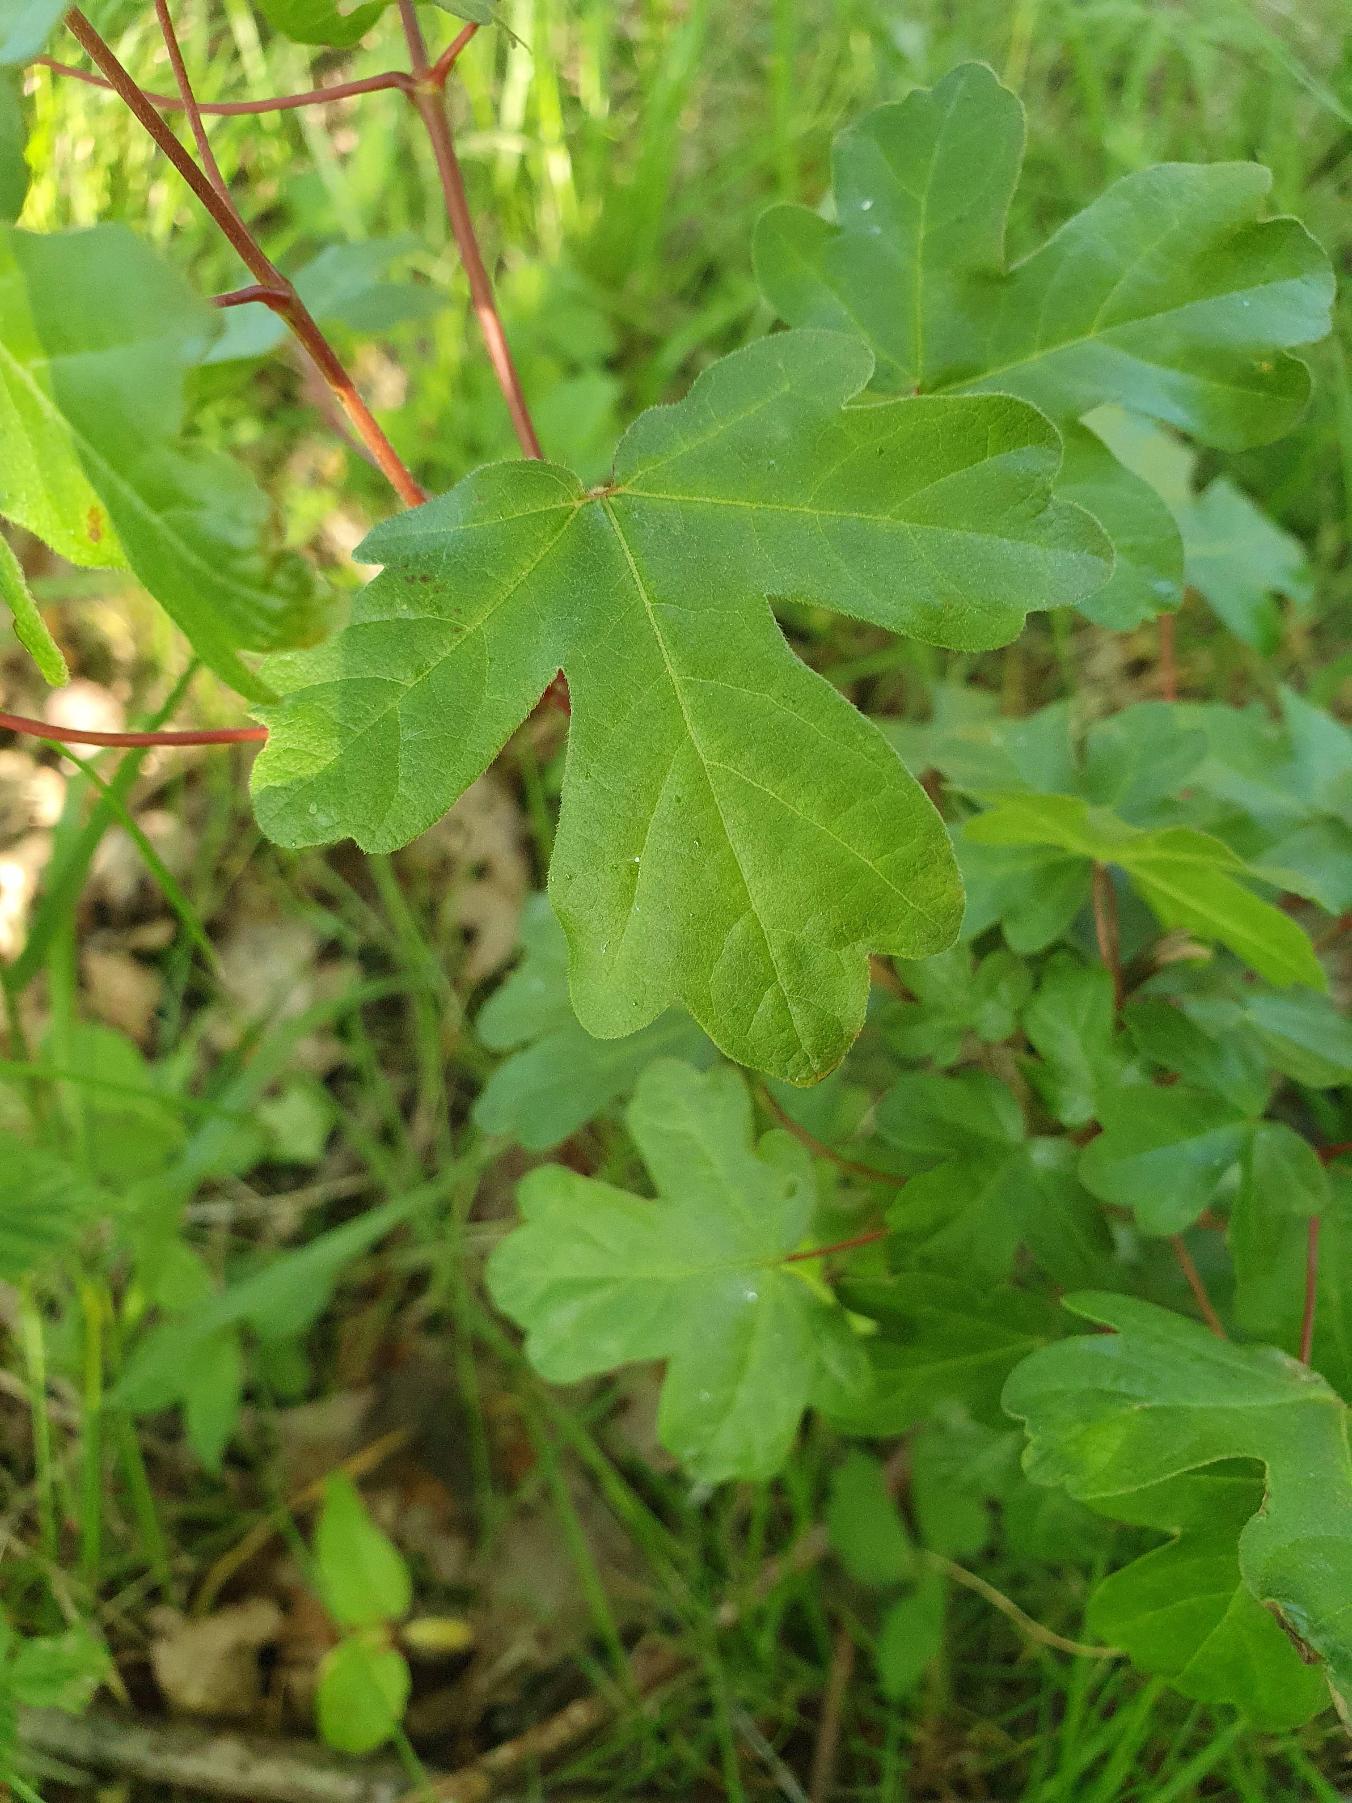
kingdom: Plantae
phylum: Tracheophyta
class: Magnoliopsida
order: Sapindales
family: Sapindaceae
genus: Acer
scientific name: Acer campestre
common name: Navr
